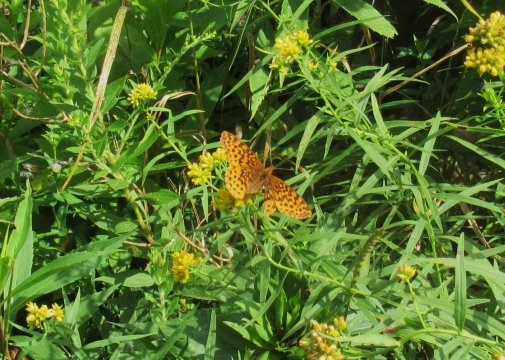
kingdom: Animalia
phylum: Arthropoda
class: Insecta
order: Lepidoptera
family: Nymphalidae
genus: Clossiana
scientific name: Clossiana toddi
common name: Meadow Fritillary
